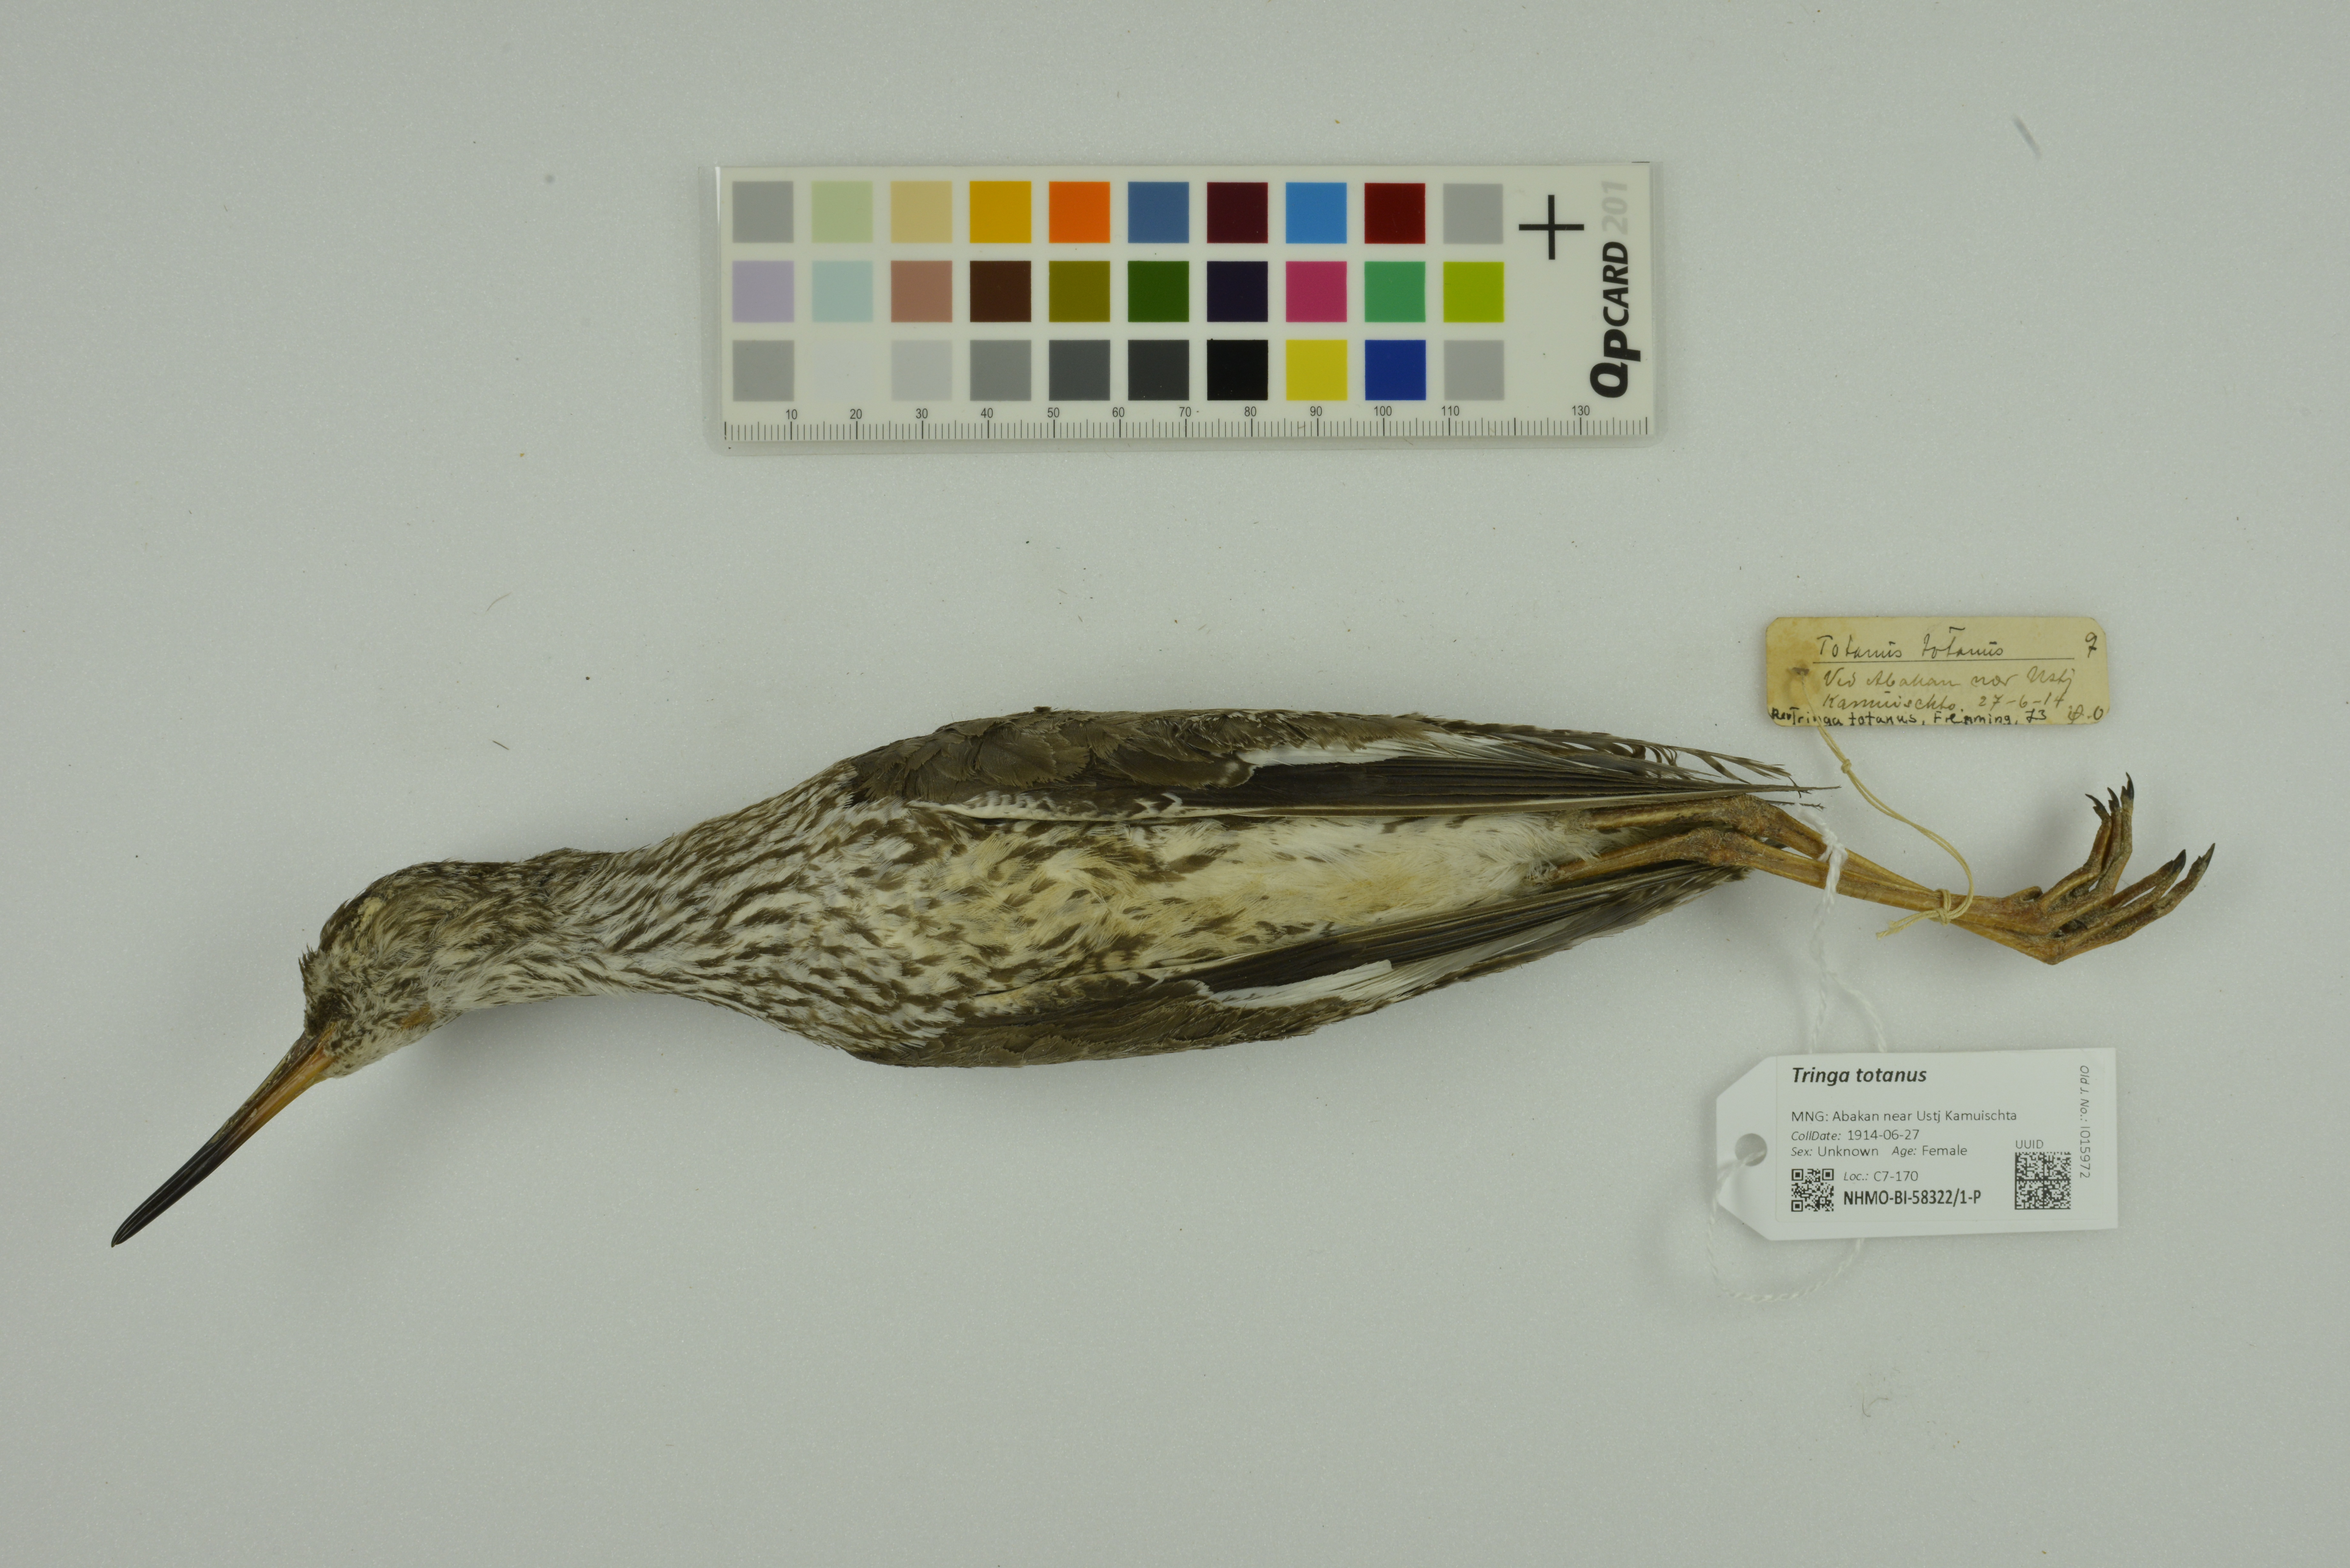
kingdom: Animalia
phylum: Chordata
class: Aves
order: Charadriiformes
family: Scolopacidae
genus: Tringa
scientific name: Tringa totanus
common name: Common redshank
